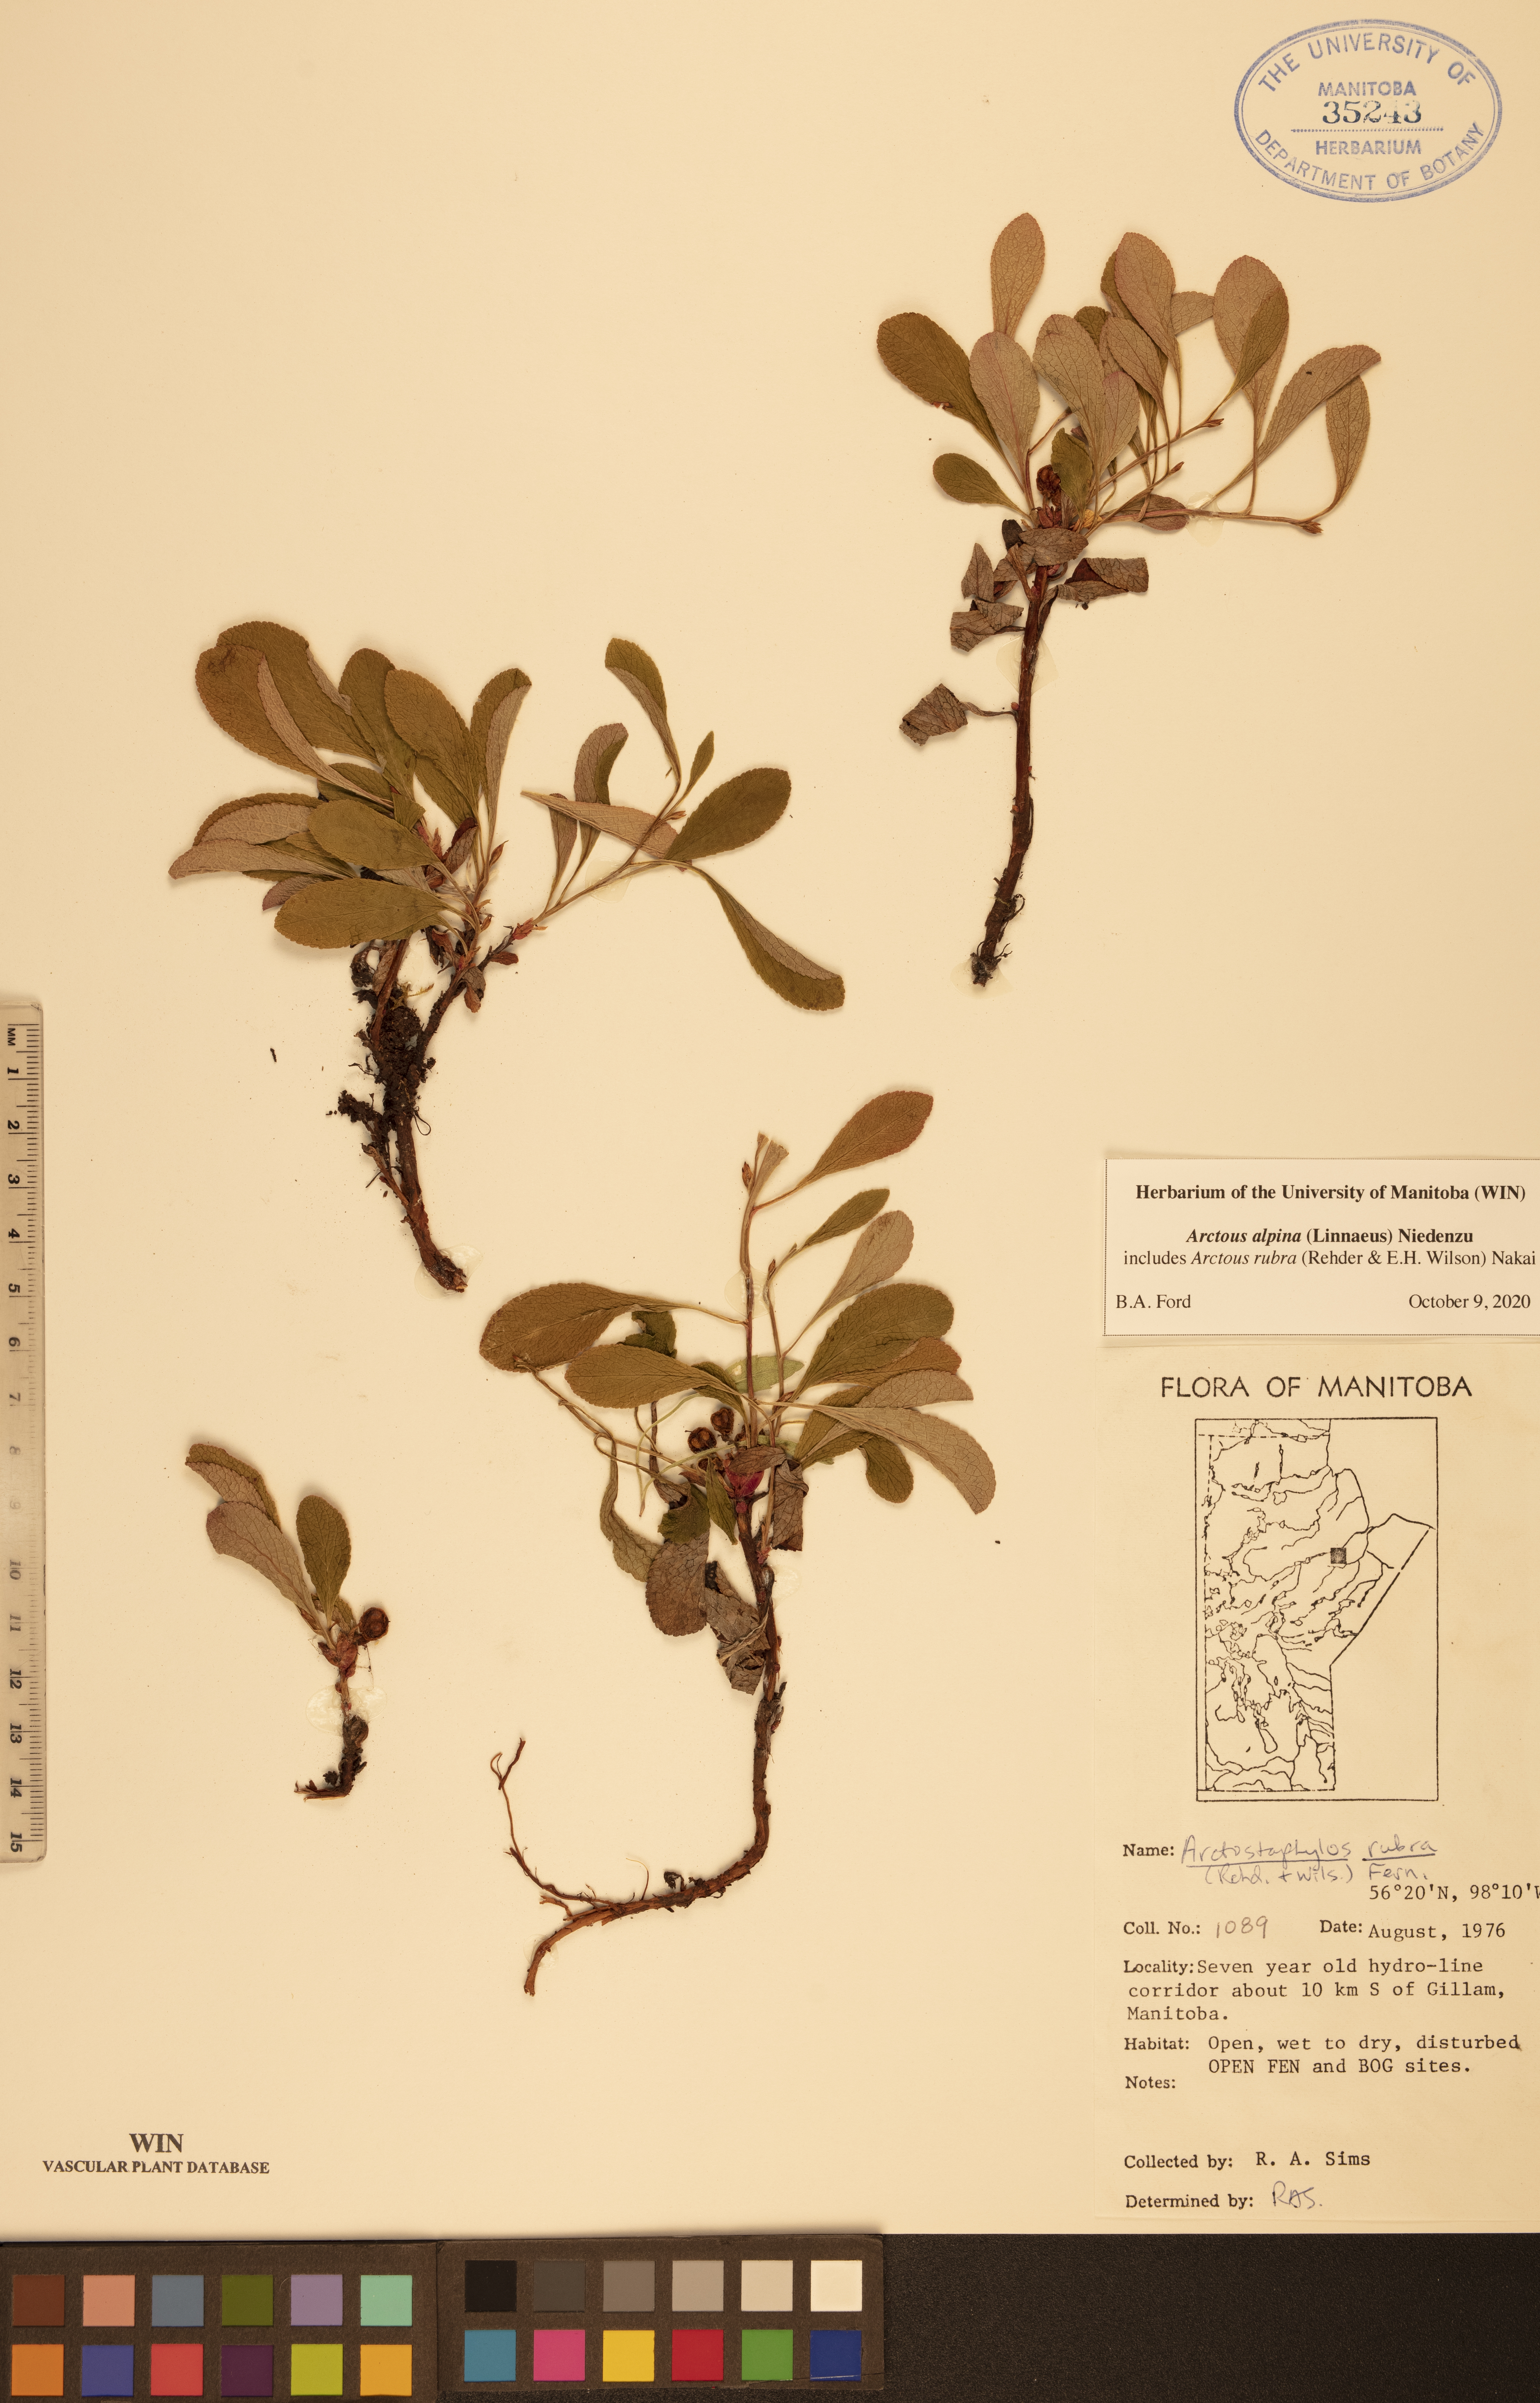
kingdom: Plantae
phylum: Tracheophyta
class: Magnoliopsida
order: Ericales
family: Ericaceae
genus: Arctostaphylos
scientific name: Arctostaphylos alpinus
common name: Alpine bearberry
